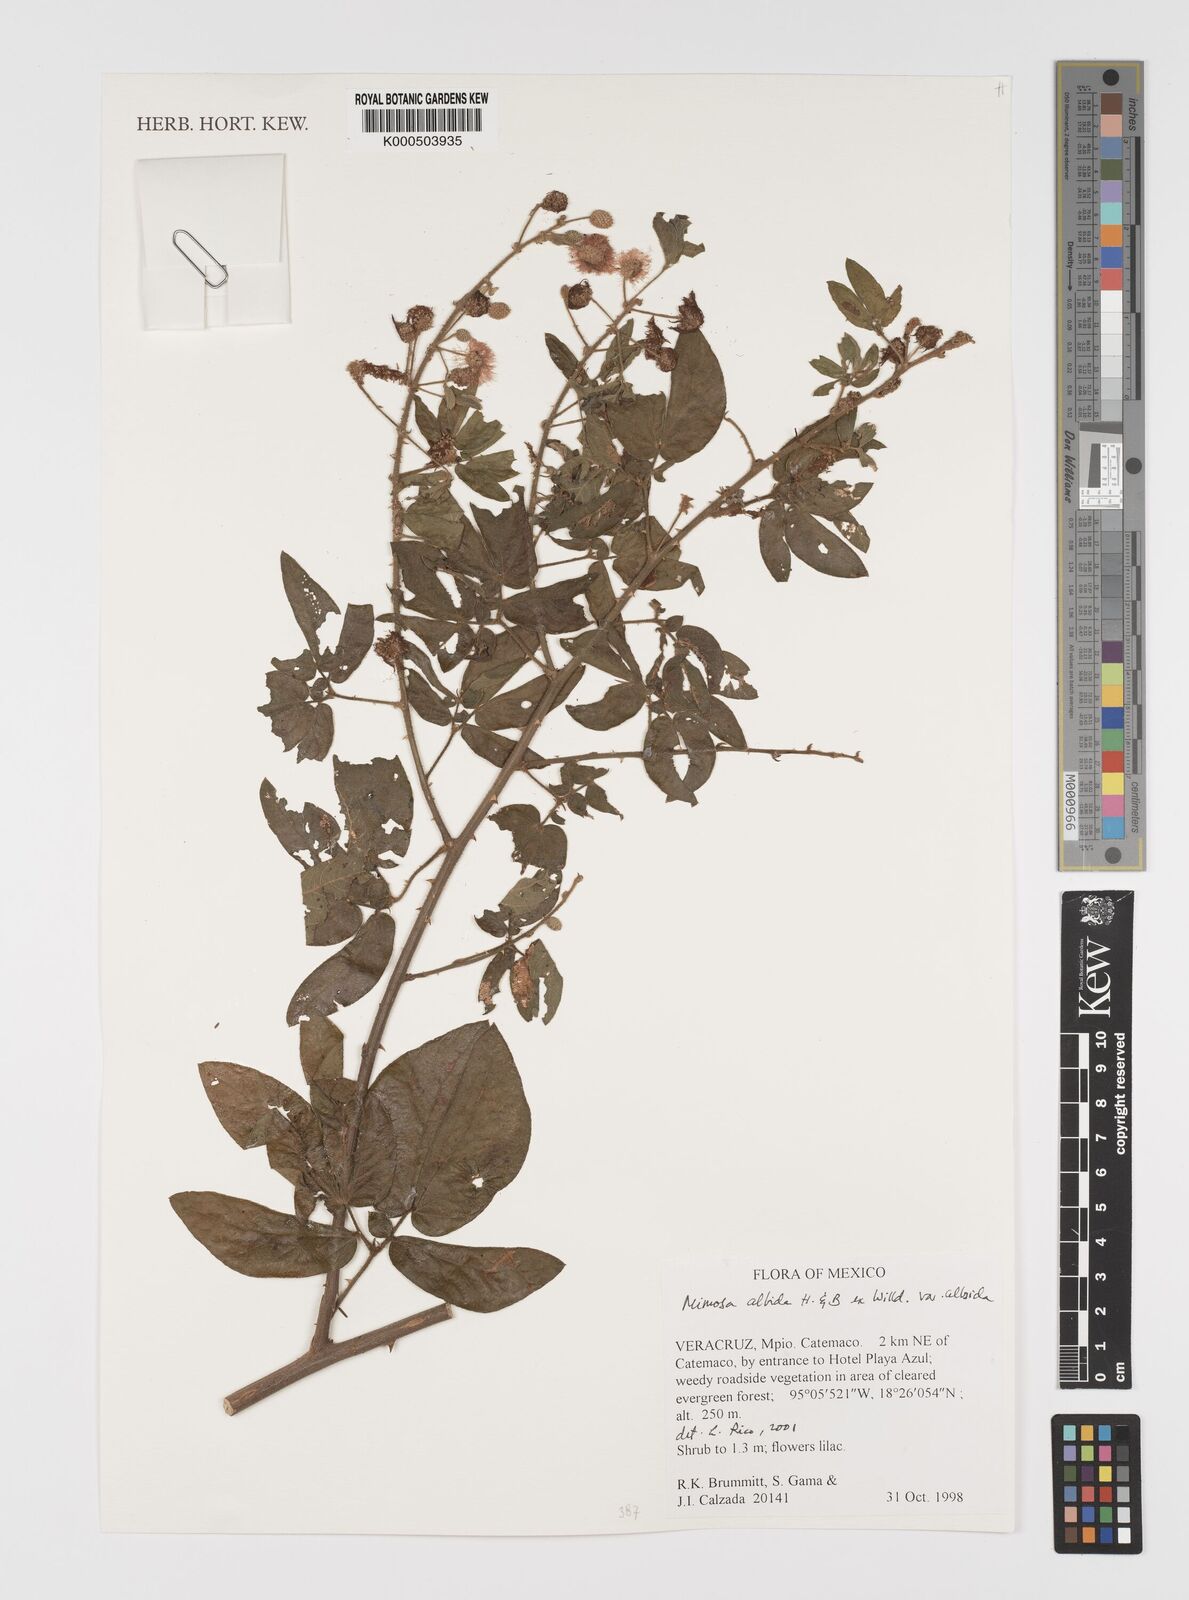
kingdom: Plantae
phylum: Tracheophyta
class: Magnoliopsida
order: Fabales
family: Fabaceae
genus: Mimosa
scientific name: Mimosa albida
